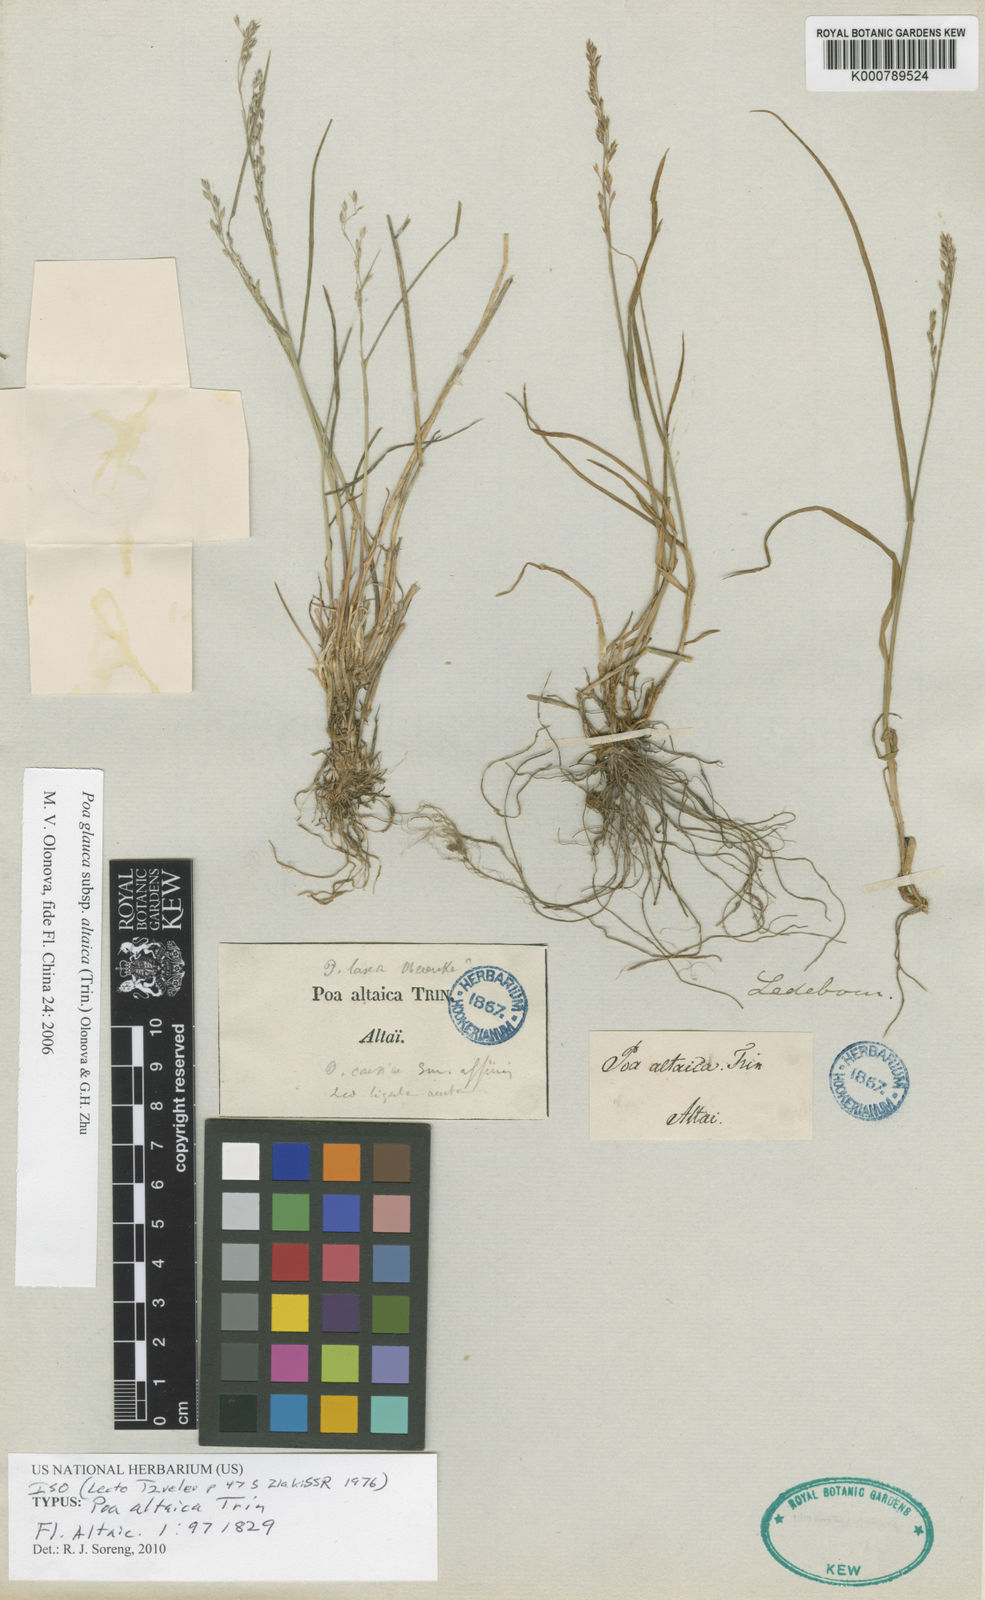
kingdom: Plantae
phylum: Tracheophyta
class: Liliopsida
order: Poales
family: Poaceae
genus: Poa
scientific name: Poa glauca
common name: Glaucous bluegrass
